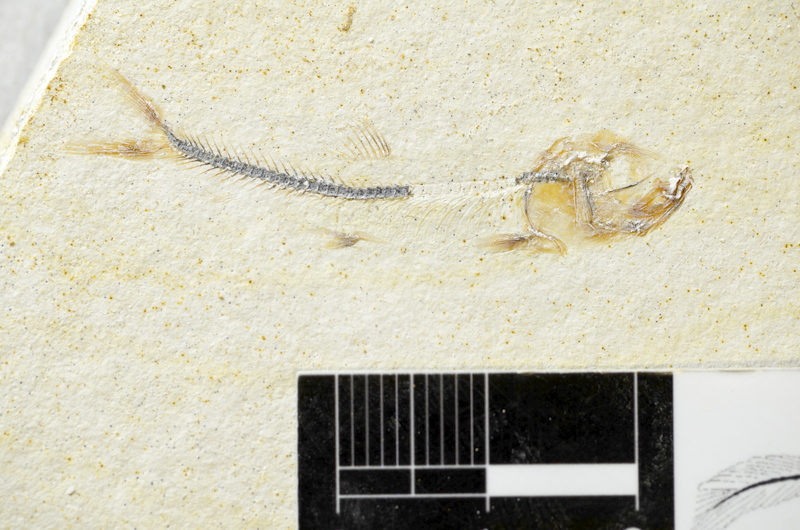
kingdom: Animalia
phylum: Chordata
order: Salmoniformes
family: Orthogonikleithridae
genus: Orthogonikleithrus
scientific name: Orthogonikleithrus hoelli
